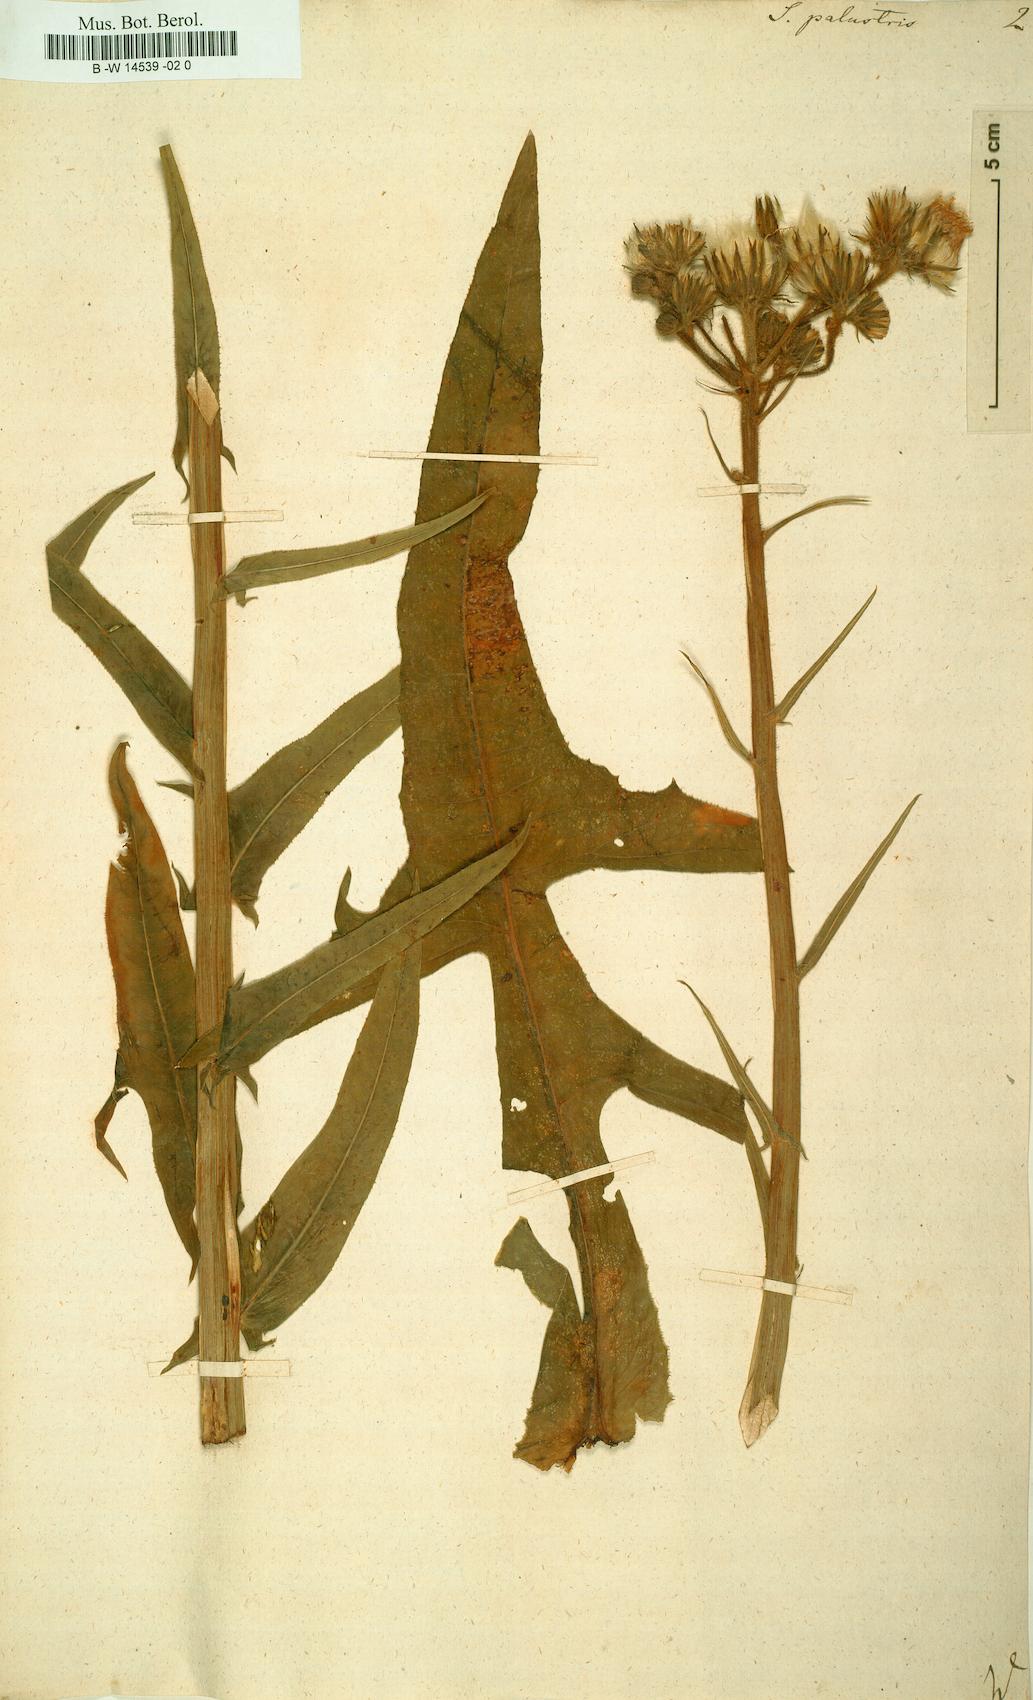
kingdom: Plantae
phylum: Tracheophyta
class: Magnoliopsida
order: Asterales
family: Asteraceae
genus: Sonchus
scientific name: Sonchus palustris
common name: Marsh sow-thistle
